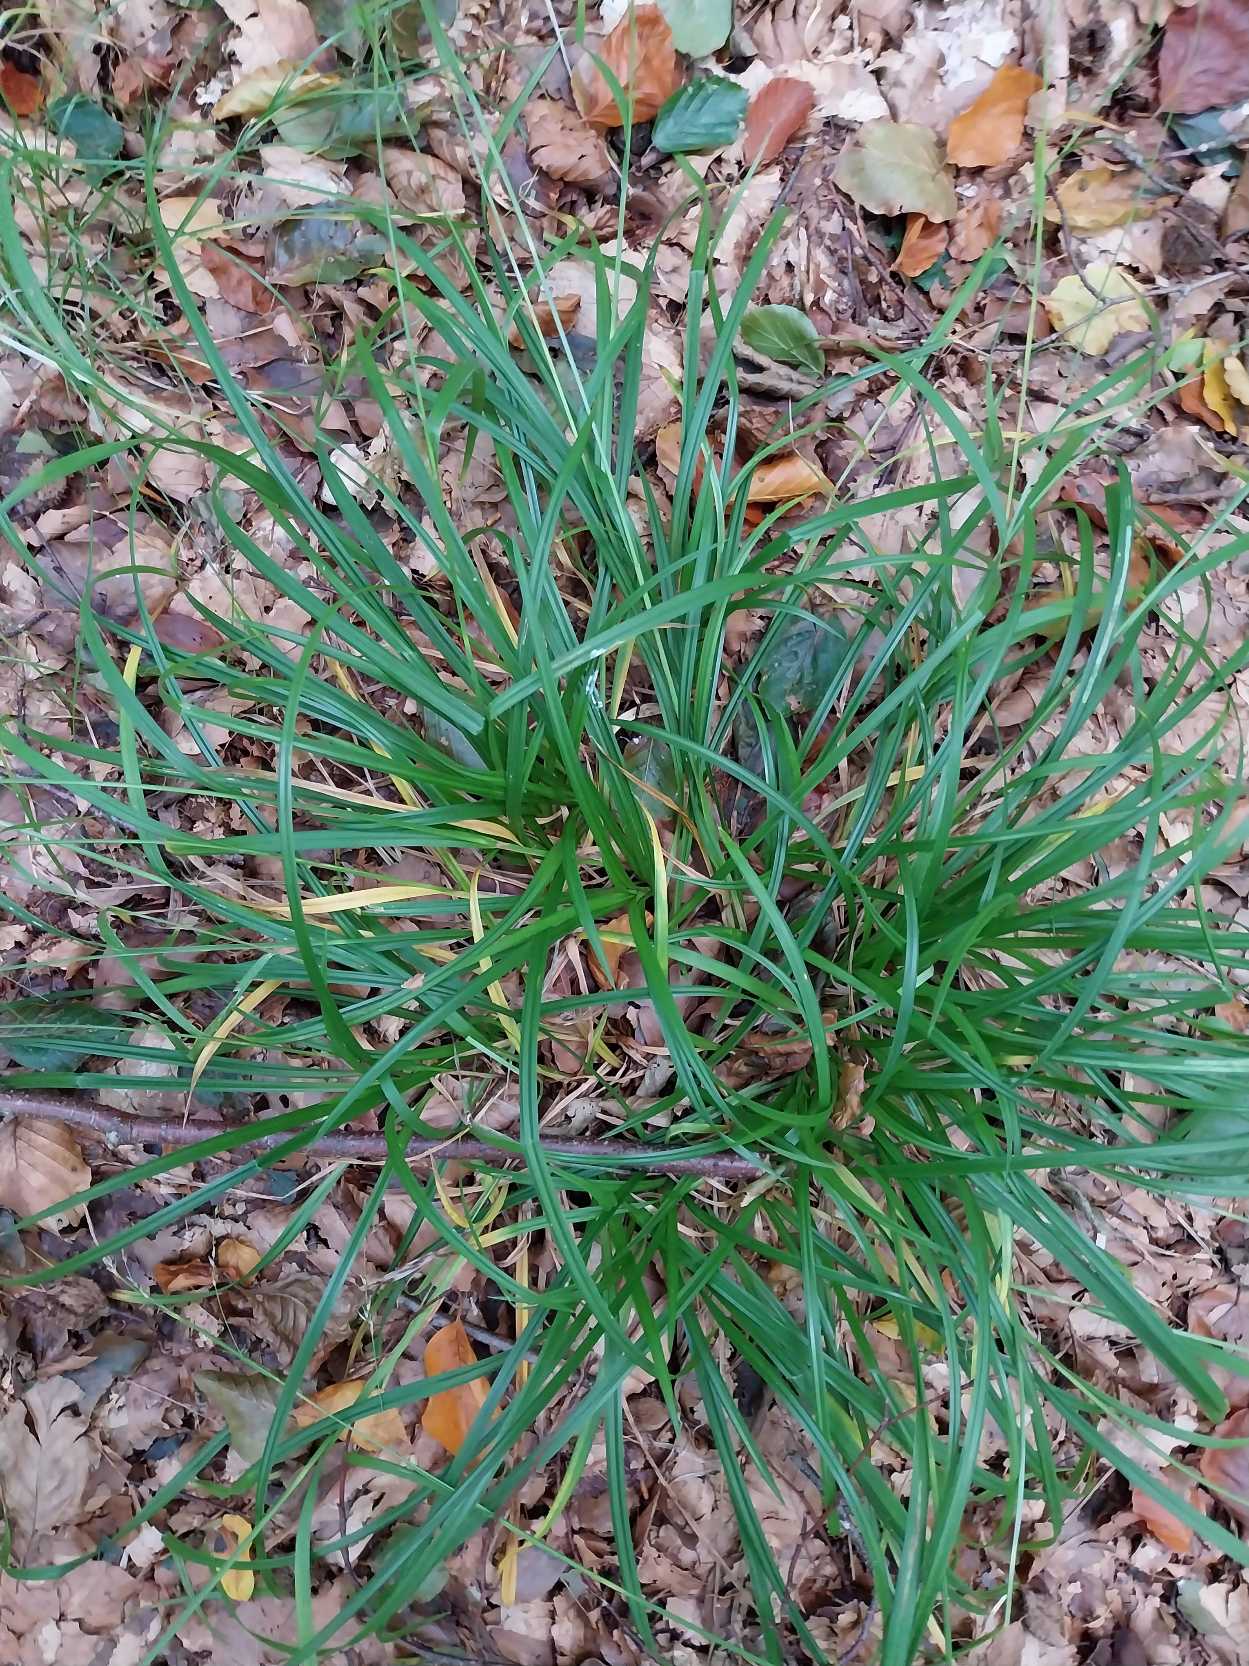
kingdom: Plantae
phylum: Tracheophyta
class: Liliopsida
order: Poales
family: Cyperaceae
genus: Carex
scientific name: Carex sylvatica
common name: Skov-star
